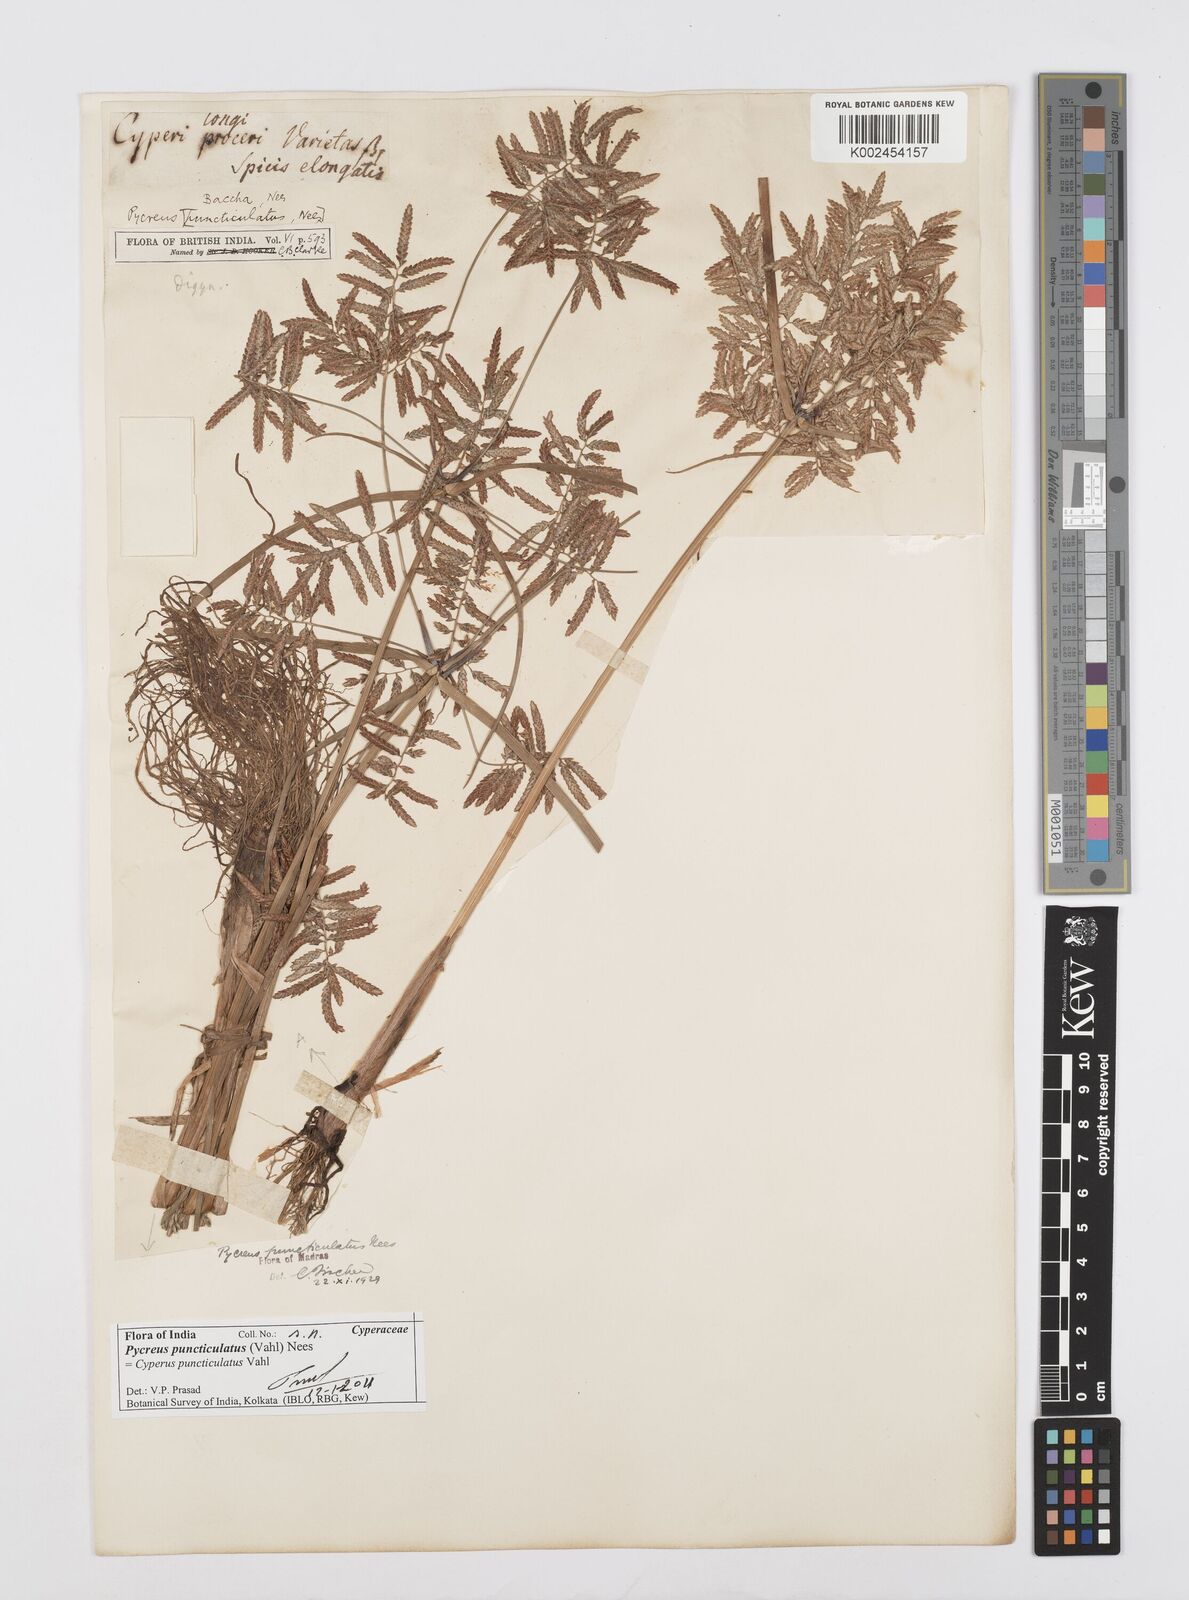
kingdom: Plantae
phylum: Tracheophyta
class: Liliopsida
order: Poales
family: Cyperaceae
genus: Cyperus
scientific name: Cyperus serotinus
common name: Tidalmarsh flatsedge
